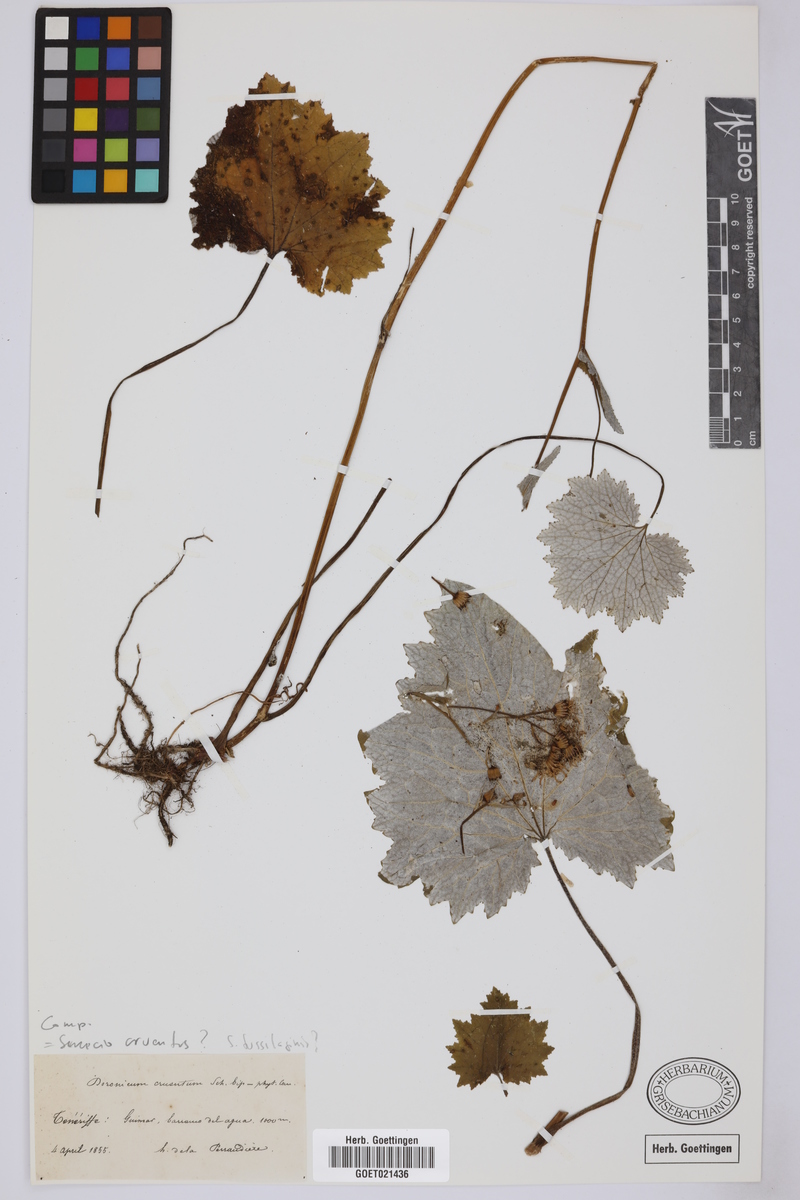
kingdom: Plantae
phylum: Tracheophyta
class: Magnoliopsida
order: Asterales
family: Asteraceae
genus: Pericallis
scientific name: Pericallis tussilaginis
